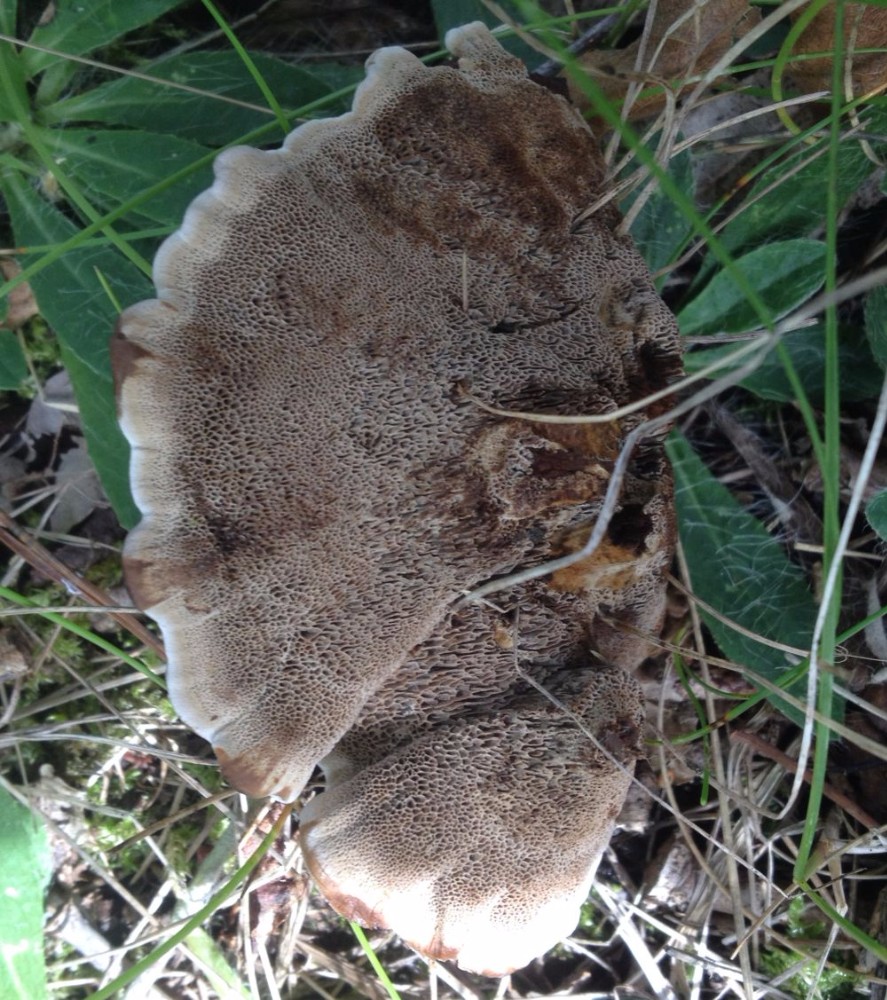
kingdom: Fungi
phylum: Basidiomycota
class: Agaricomycetes
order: Hymenochaetales
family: Hymenochaetaceae
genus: Coltricia
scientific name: Coltricia perennis
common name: almindelig sandporesvamp
